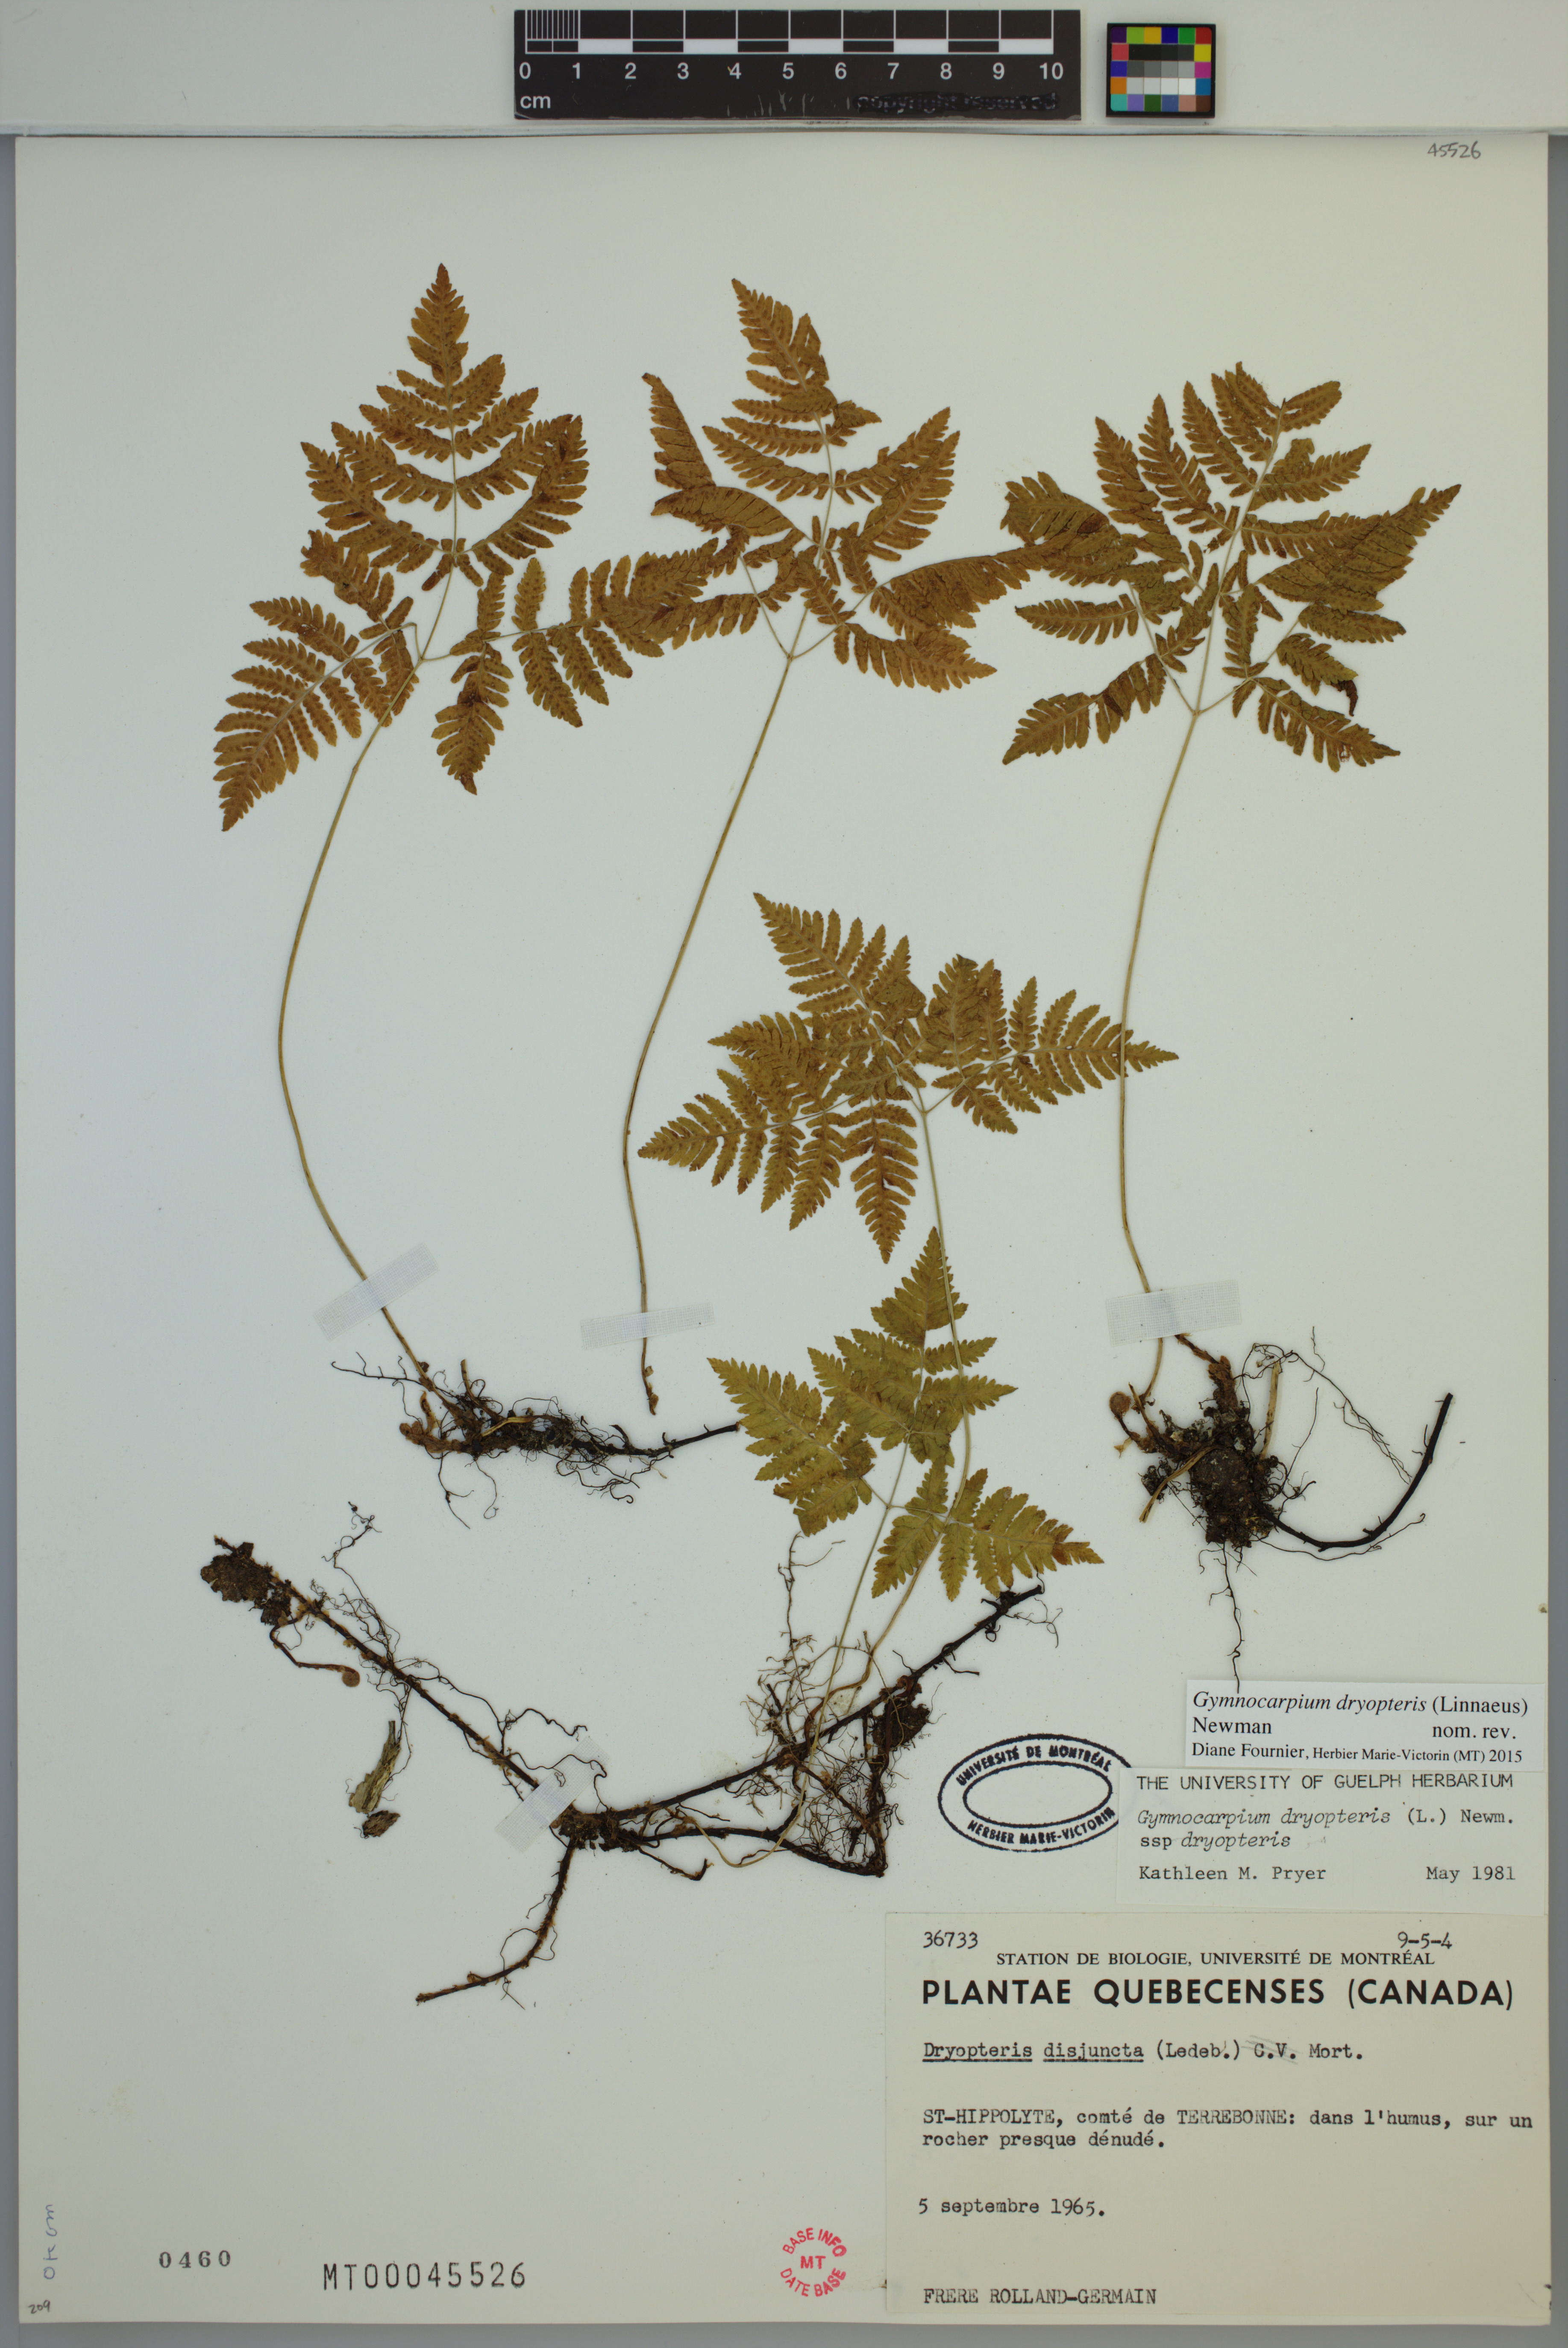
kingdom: Plantae
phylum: Tracheophyta
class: Polypodiopsida
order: Polypodiales
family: Cystopteridaceae
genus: Gymnocarpium
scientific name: Gymnocarpium dryopteris
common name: Oak fern
